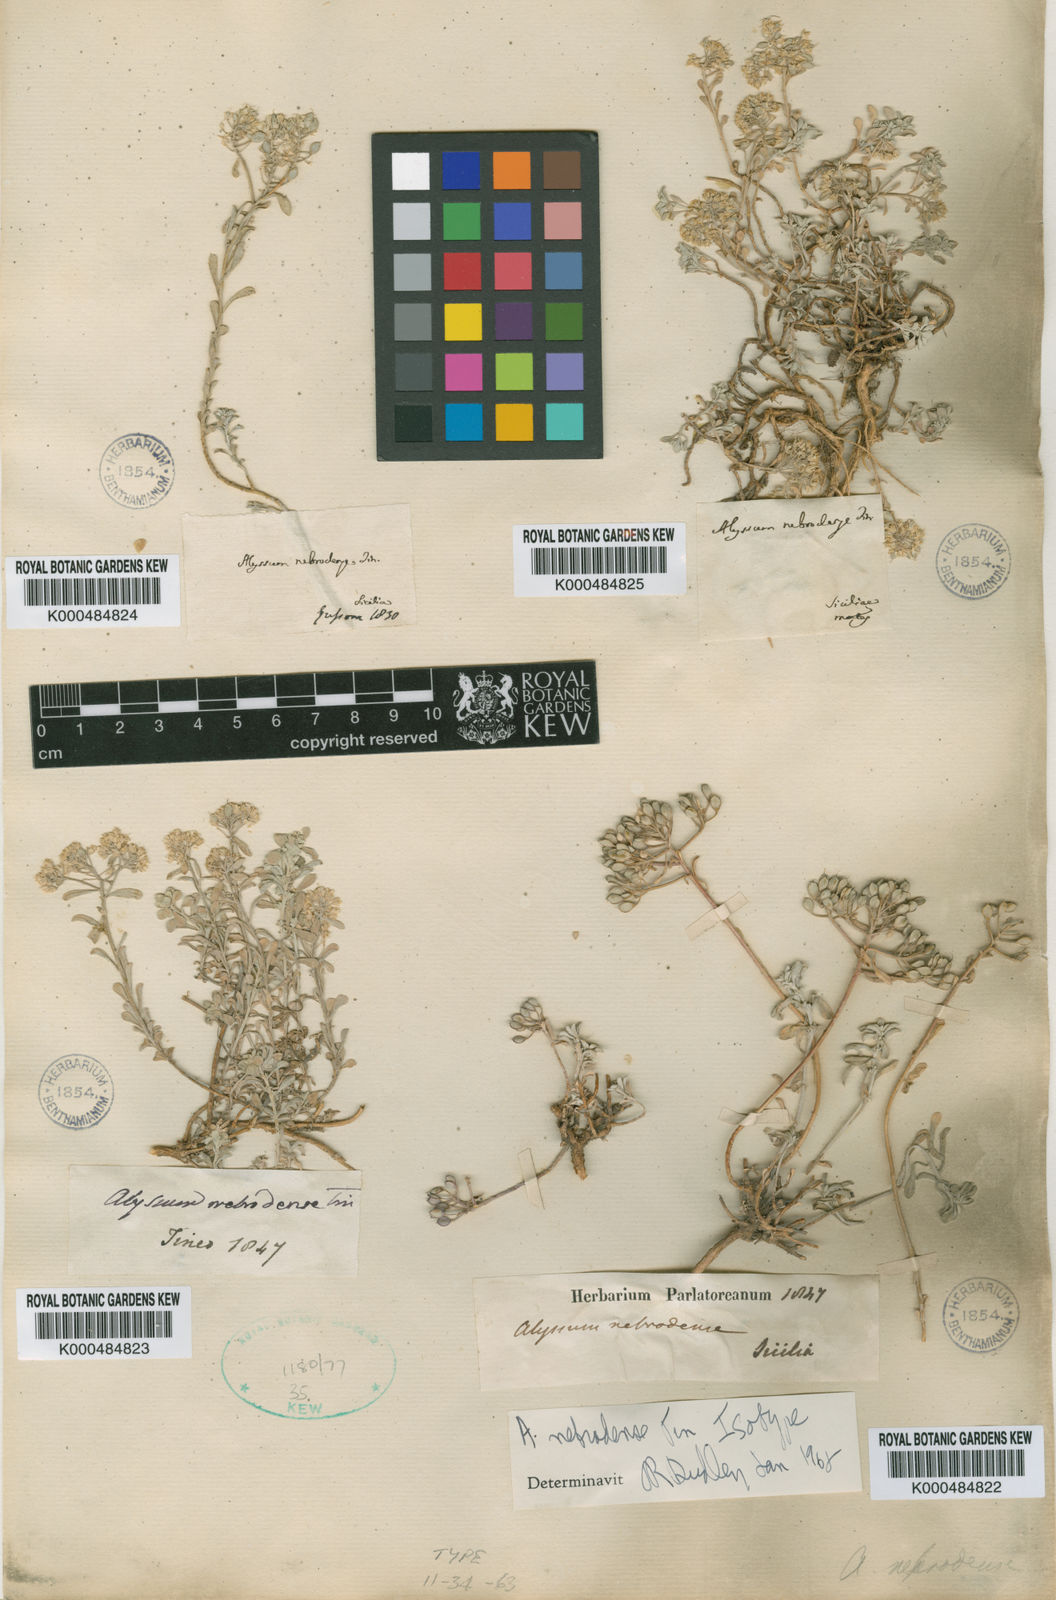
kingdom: Plantae
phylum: Tracheophyta
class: Magnoliopsida
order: Brassicales
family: Brassicaceae
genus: Odontarrhena
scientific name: Odontarrhena nebrodensis
